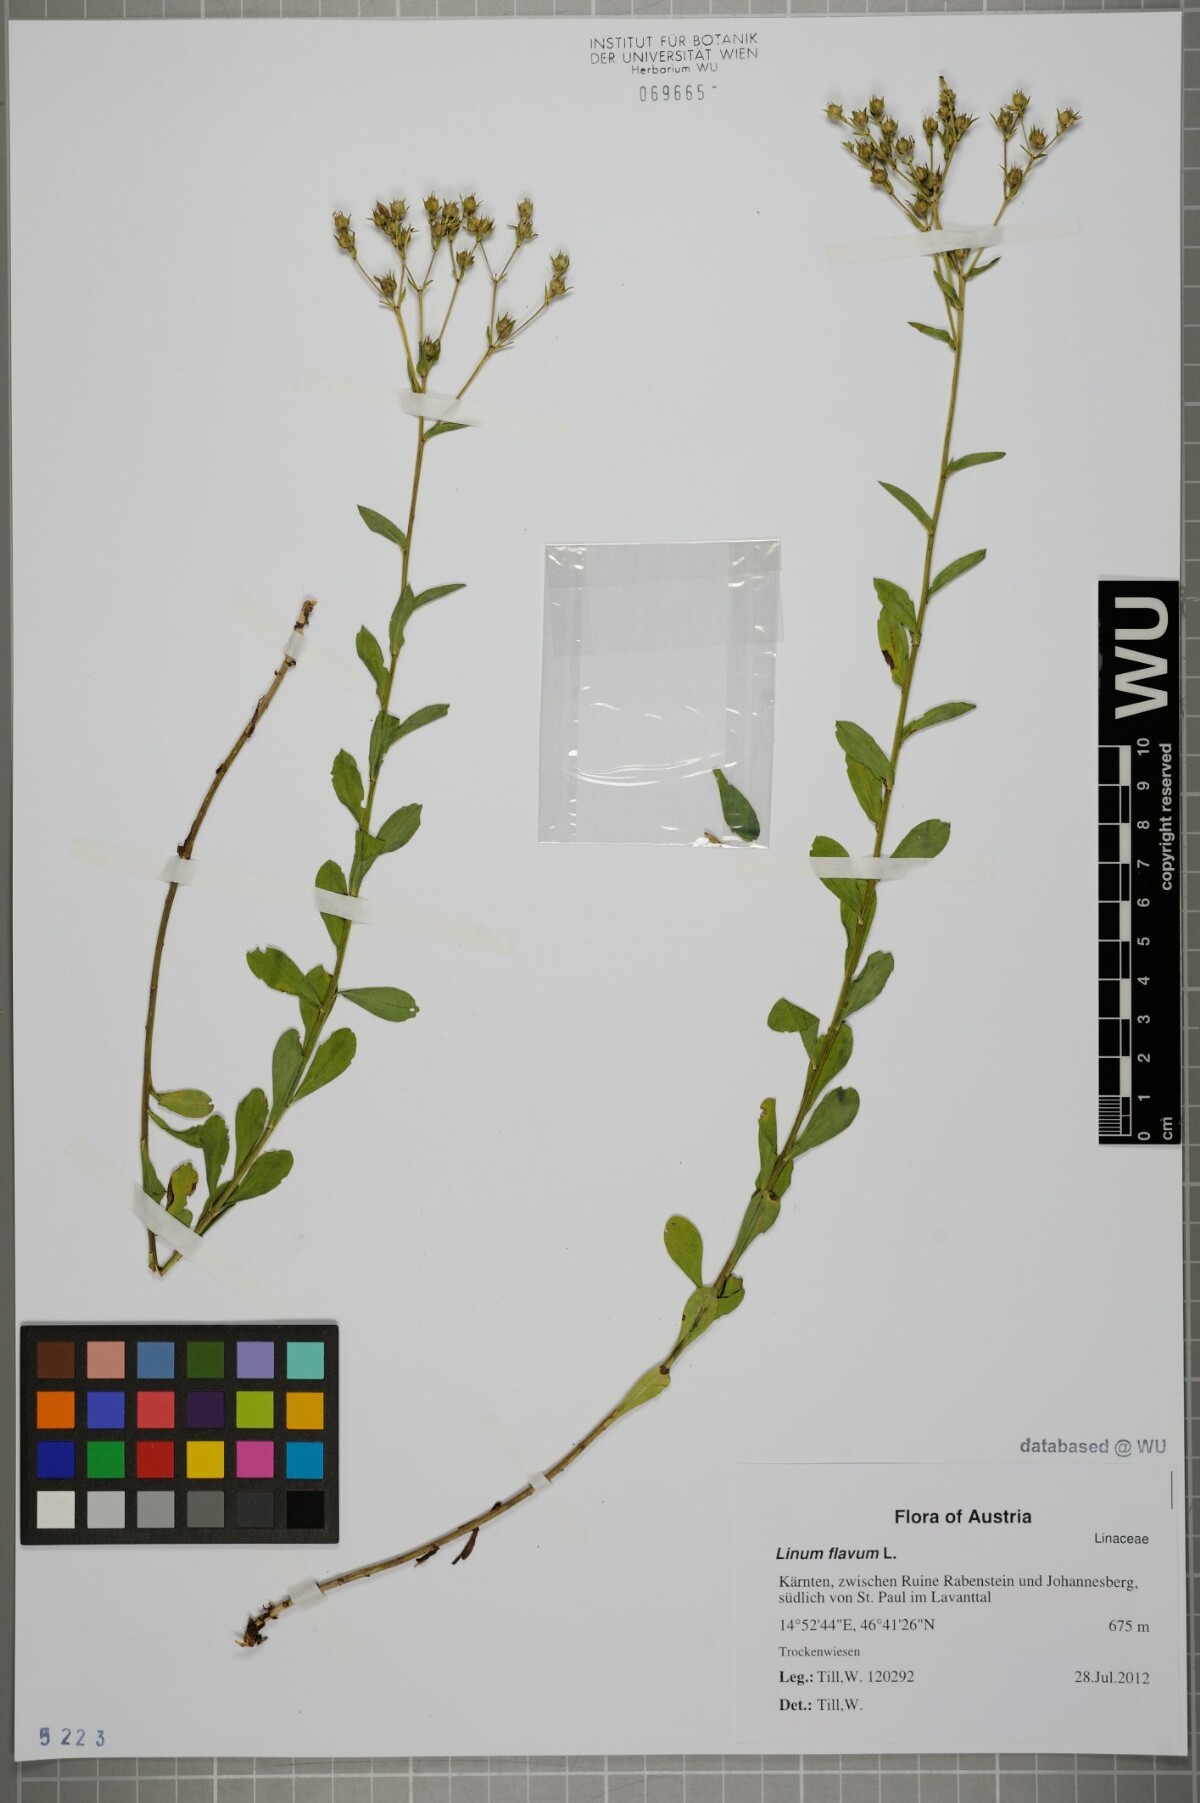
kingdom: Plantae
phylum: Tracheophyta
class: Magnoliopsida
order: Malpighiales
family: Linaceae
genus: Linum
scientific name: Linum flavum
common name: Yellow flax
